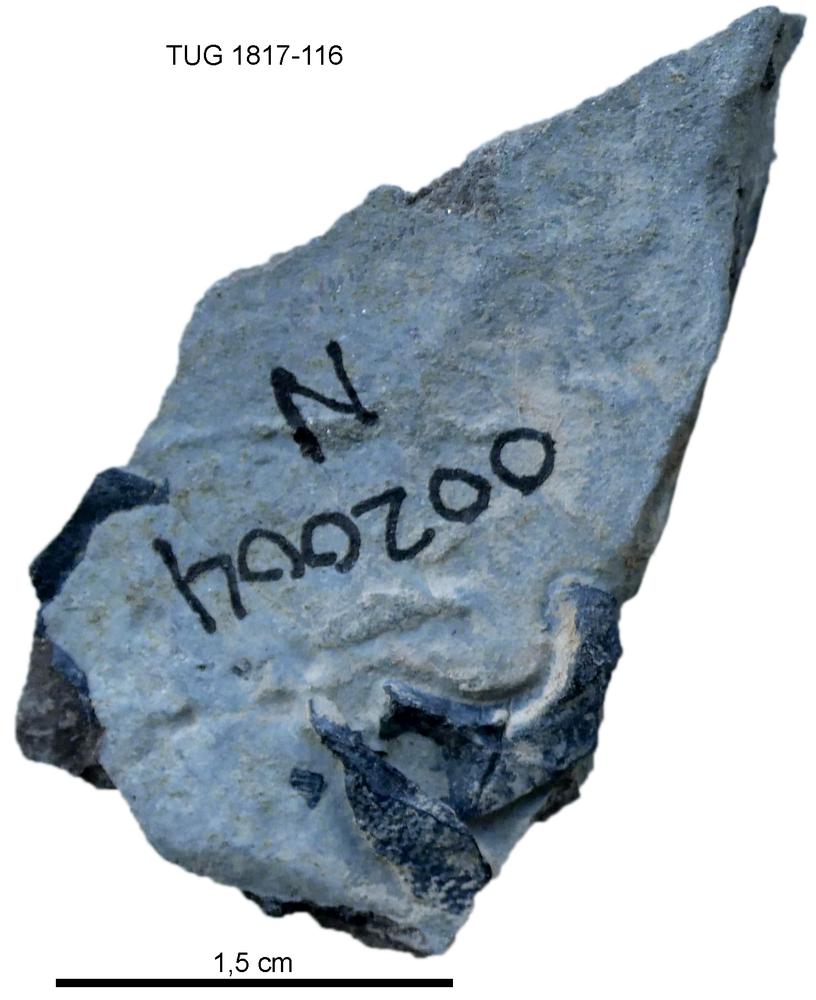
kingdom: Animalia
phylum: Chordata
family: Coccosteidae
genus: Millerosteus
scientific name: Millerosteus minor
